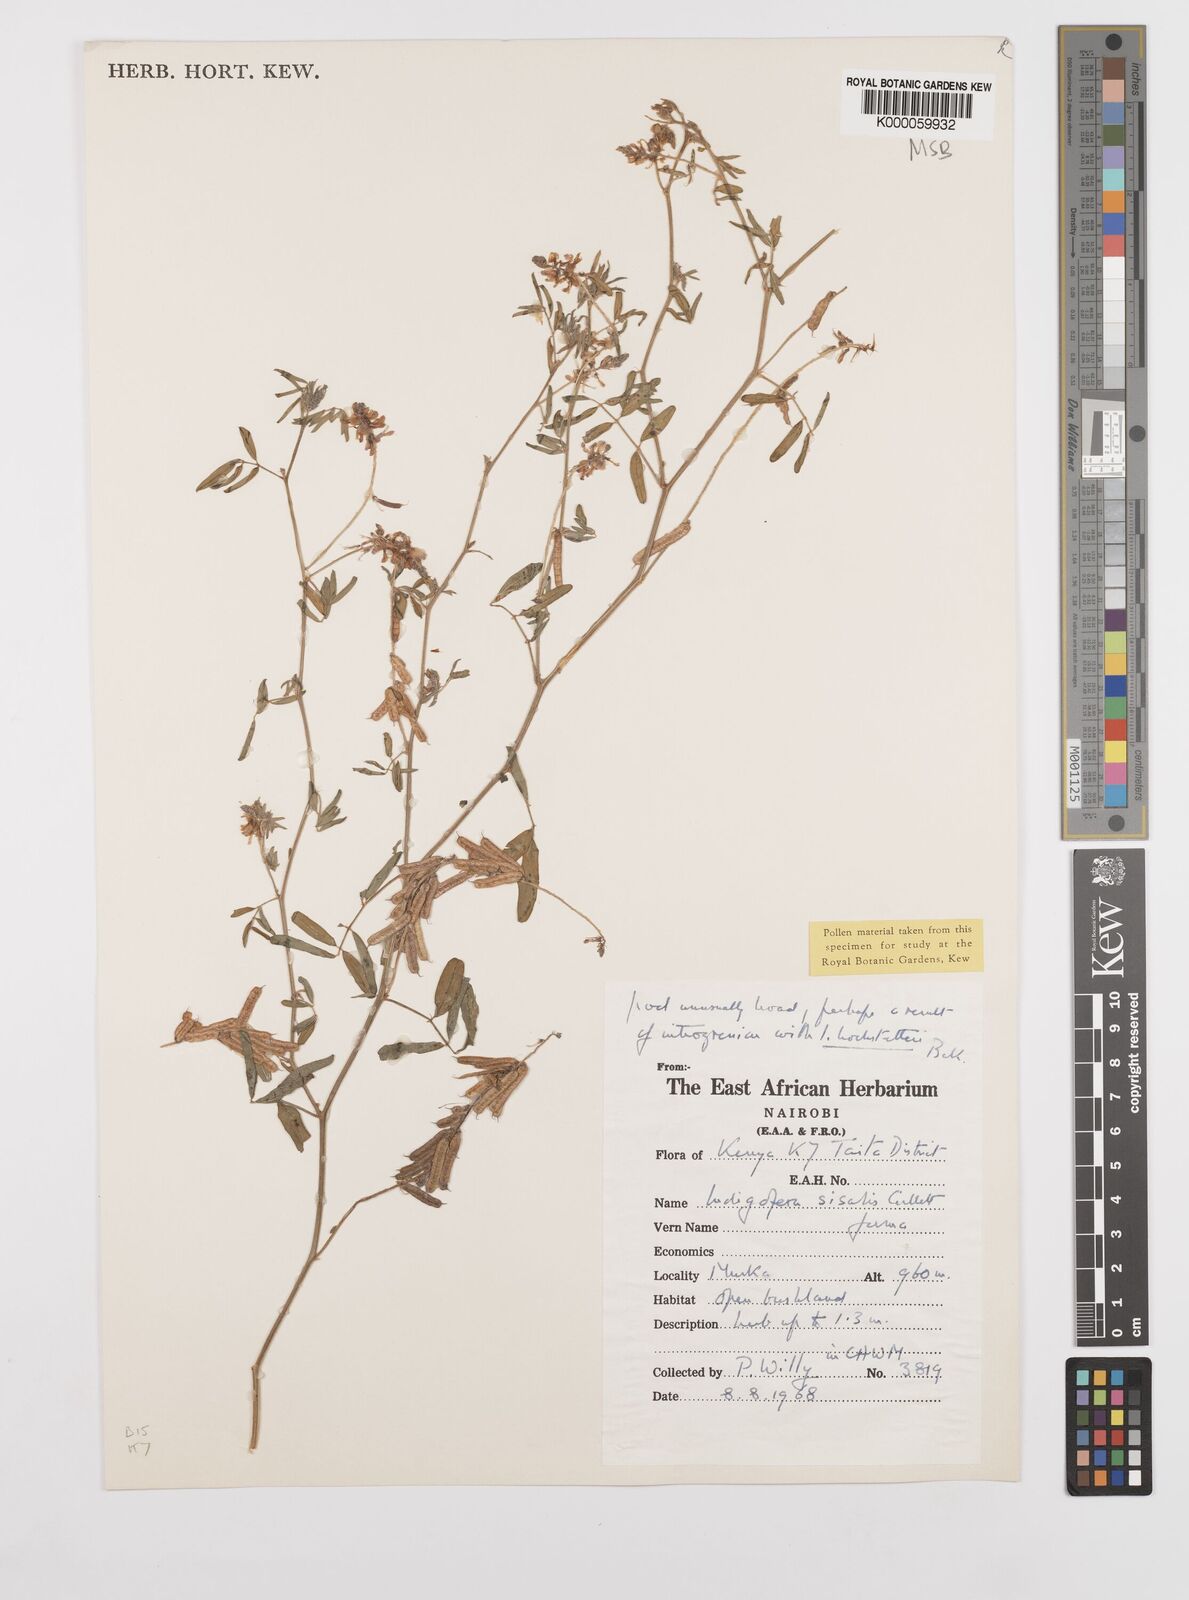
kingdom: Plantae
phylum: Tracheophyta
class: Magnoliopsida
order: Fabales
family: Fabaceae
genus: Indigofera
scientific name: Indigofera sisalis
